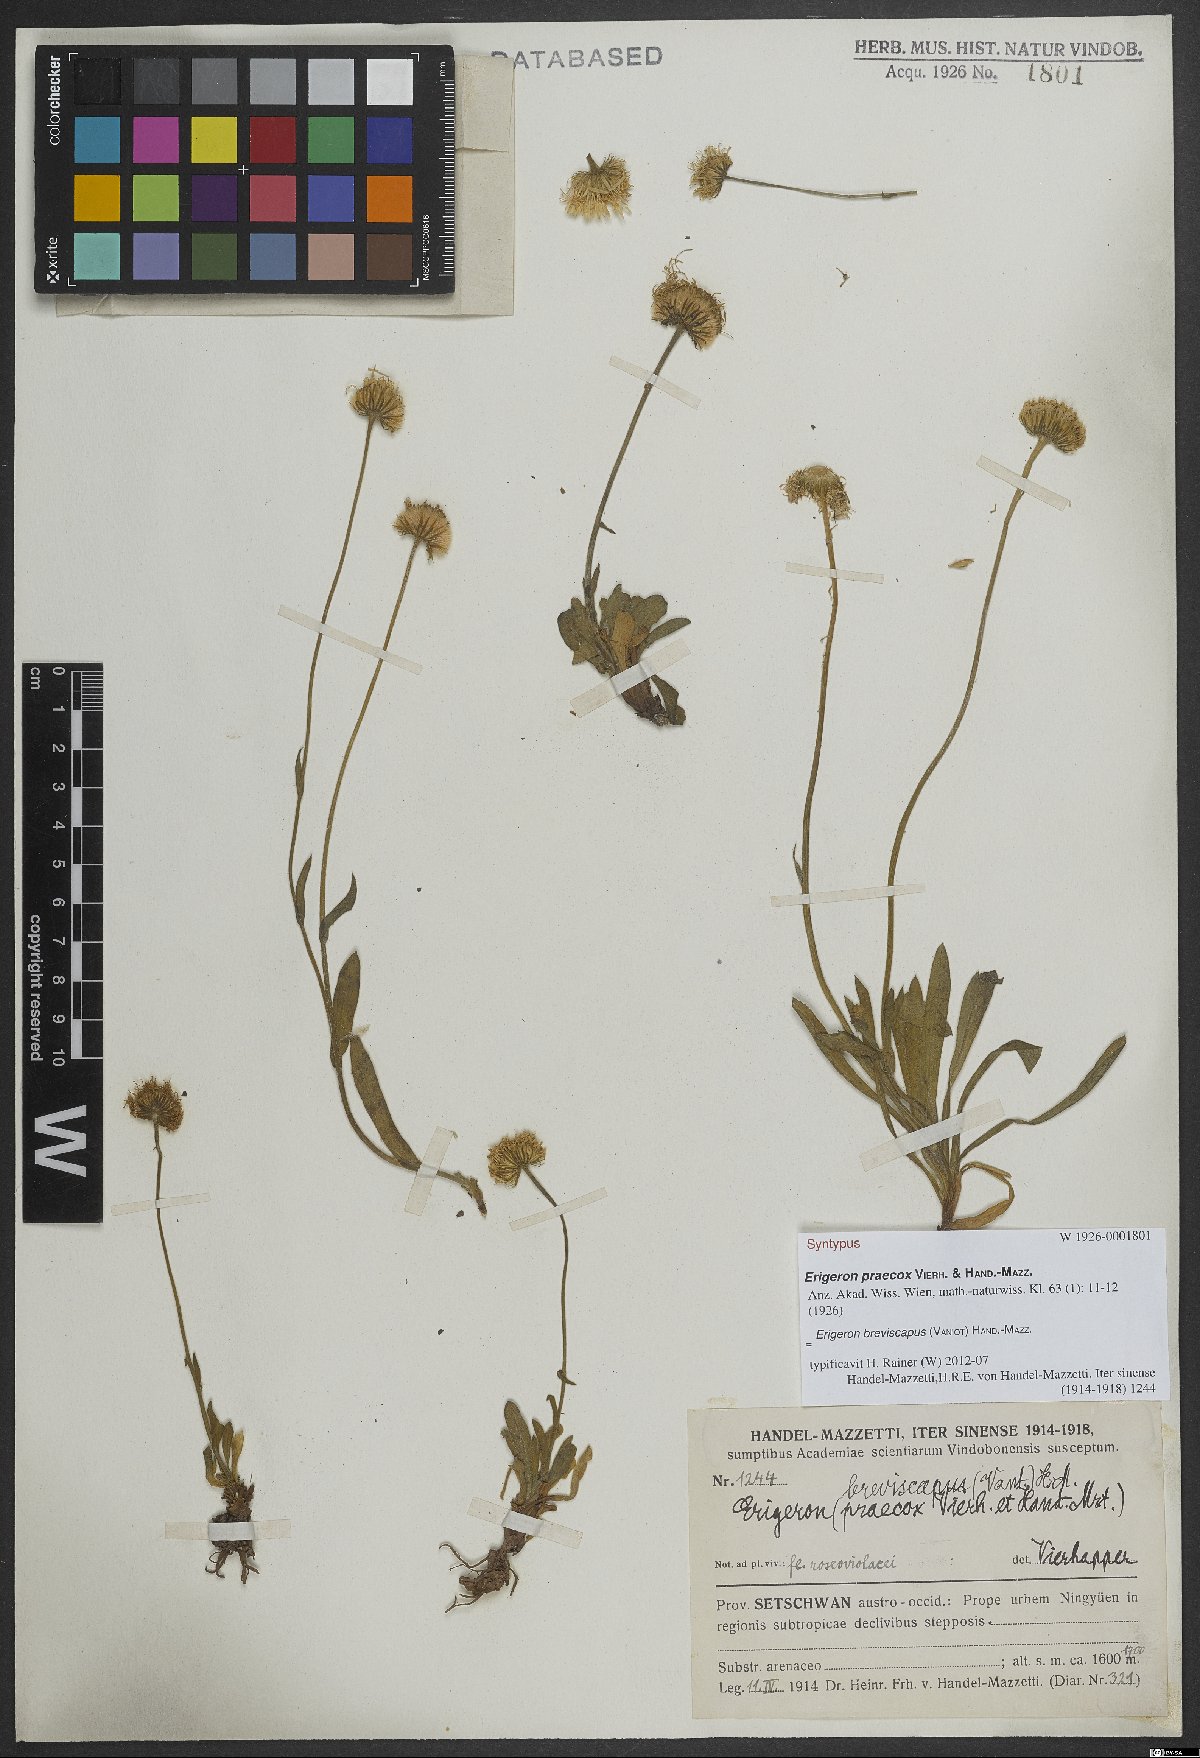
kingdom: Plantae
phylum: Tracheophyta
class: Magnoliopsida
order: Asterales
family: Asteraceae
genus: Erigeron
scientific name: Erigeron breviscapus
